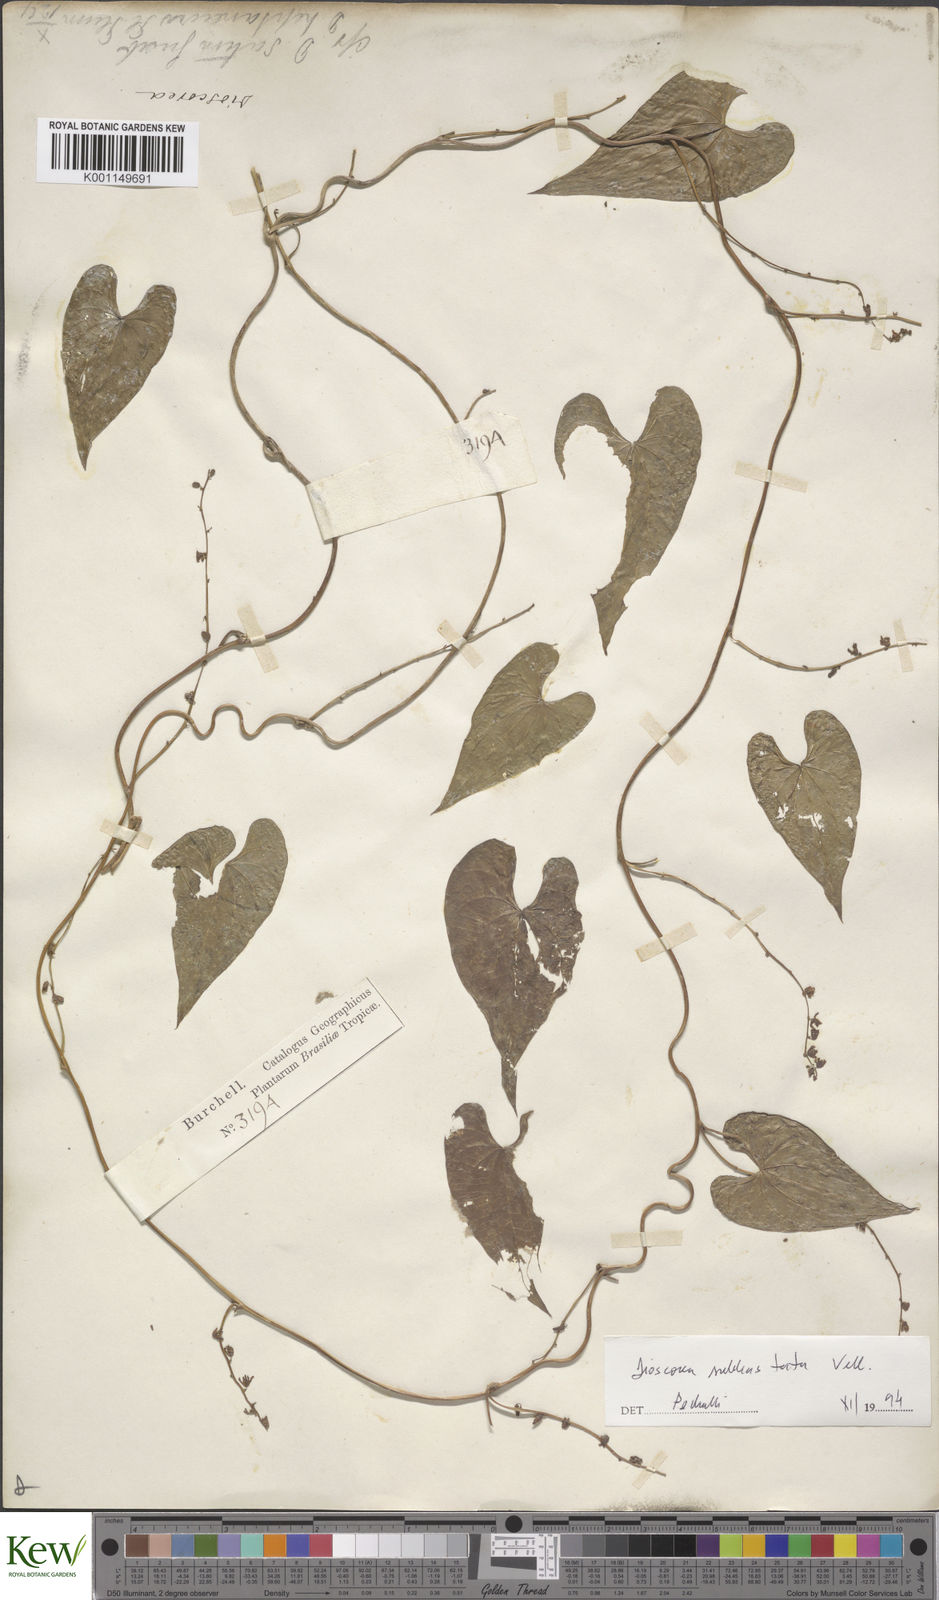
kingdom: Plantae
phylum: Tracheophyta
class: Liliopsida
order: Dioscoreales
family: Dioscoreaceae
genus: Dioscorea
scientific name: Dioscorea grandiflora
